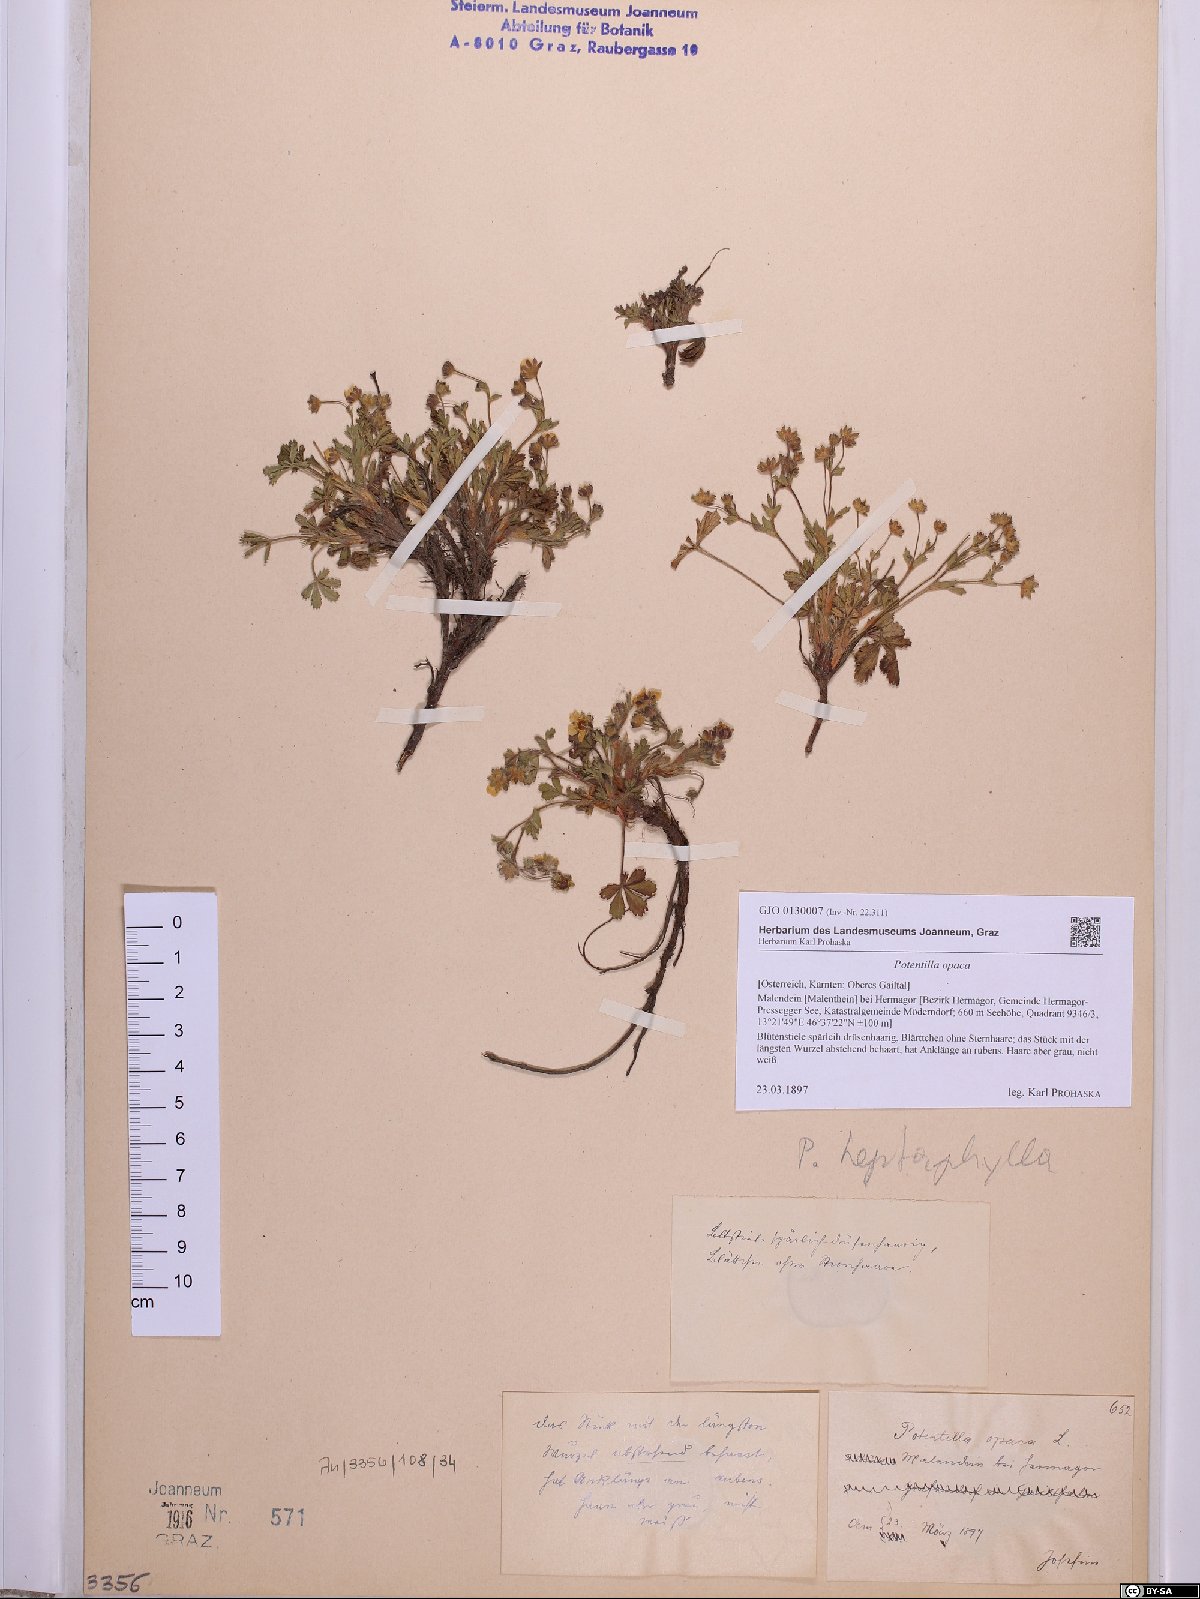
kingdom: Plantae
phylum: Tracheophyta
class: Magnoliopsida
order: Rosales
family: Rosaceae
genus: Potentilla
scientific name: Potentilla
